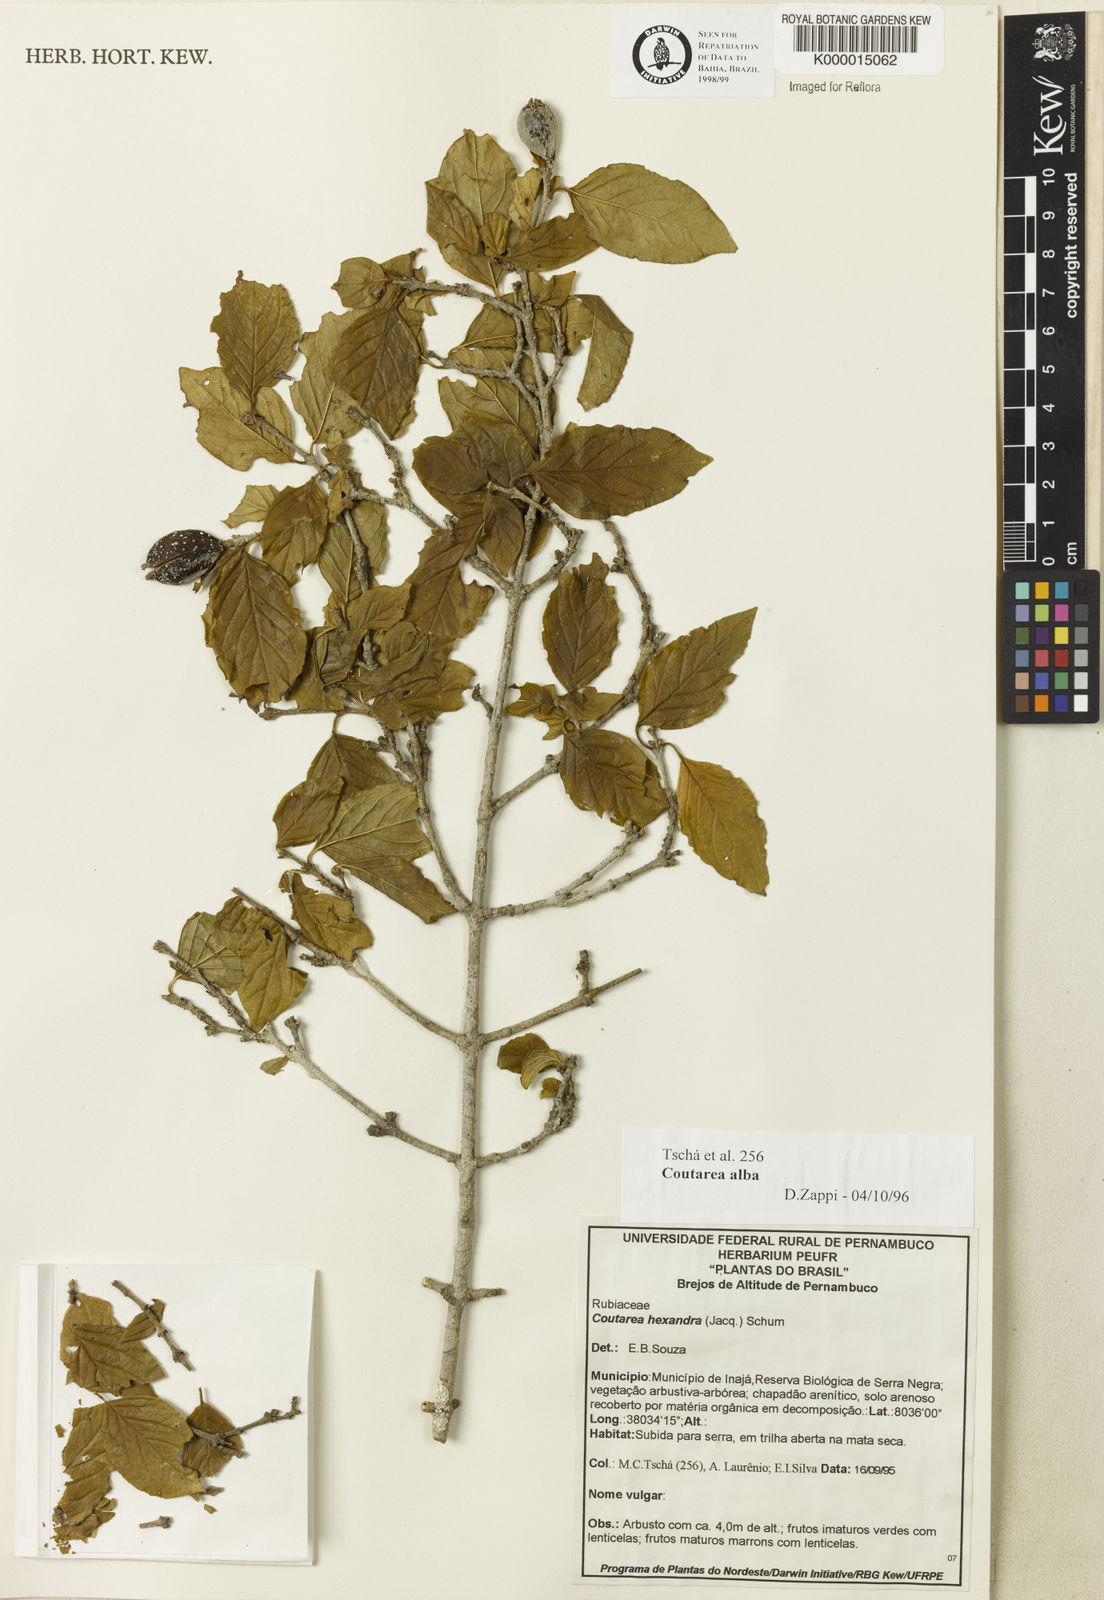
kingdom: Plantae
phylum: Tracheophyta
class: Magnoliopsida
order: Gentianales
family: Rubiaceae
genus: Coutarea
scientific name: Coutarea alba
